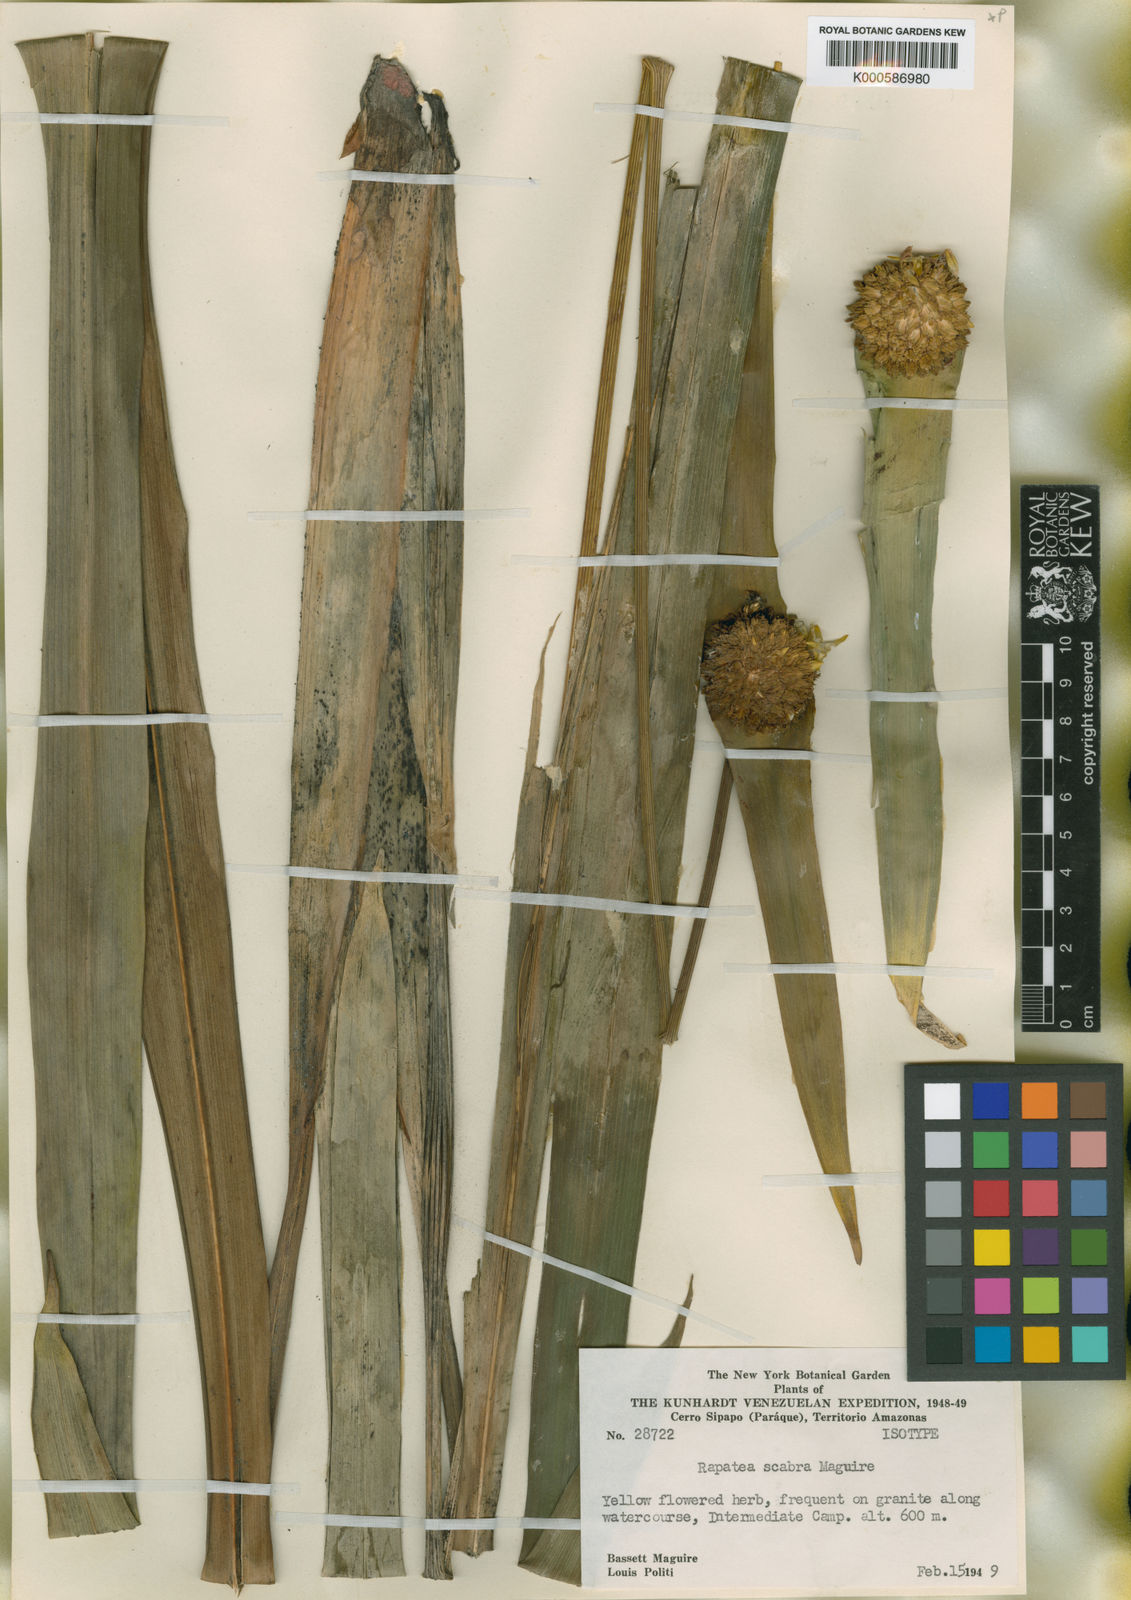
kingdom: Plantae
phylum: Tracheophyta
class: Liliopsida
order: Poales
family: Rapateaceae
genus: Rapatea
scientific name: Rapatea scabra
